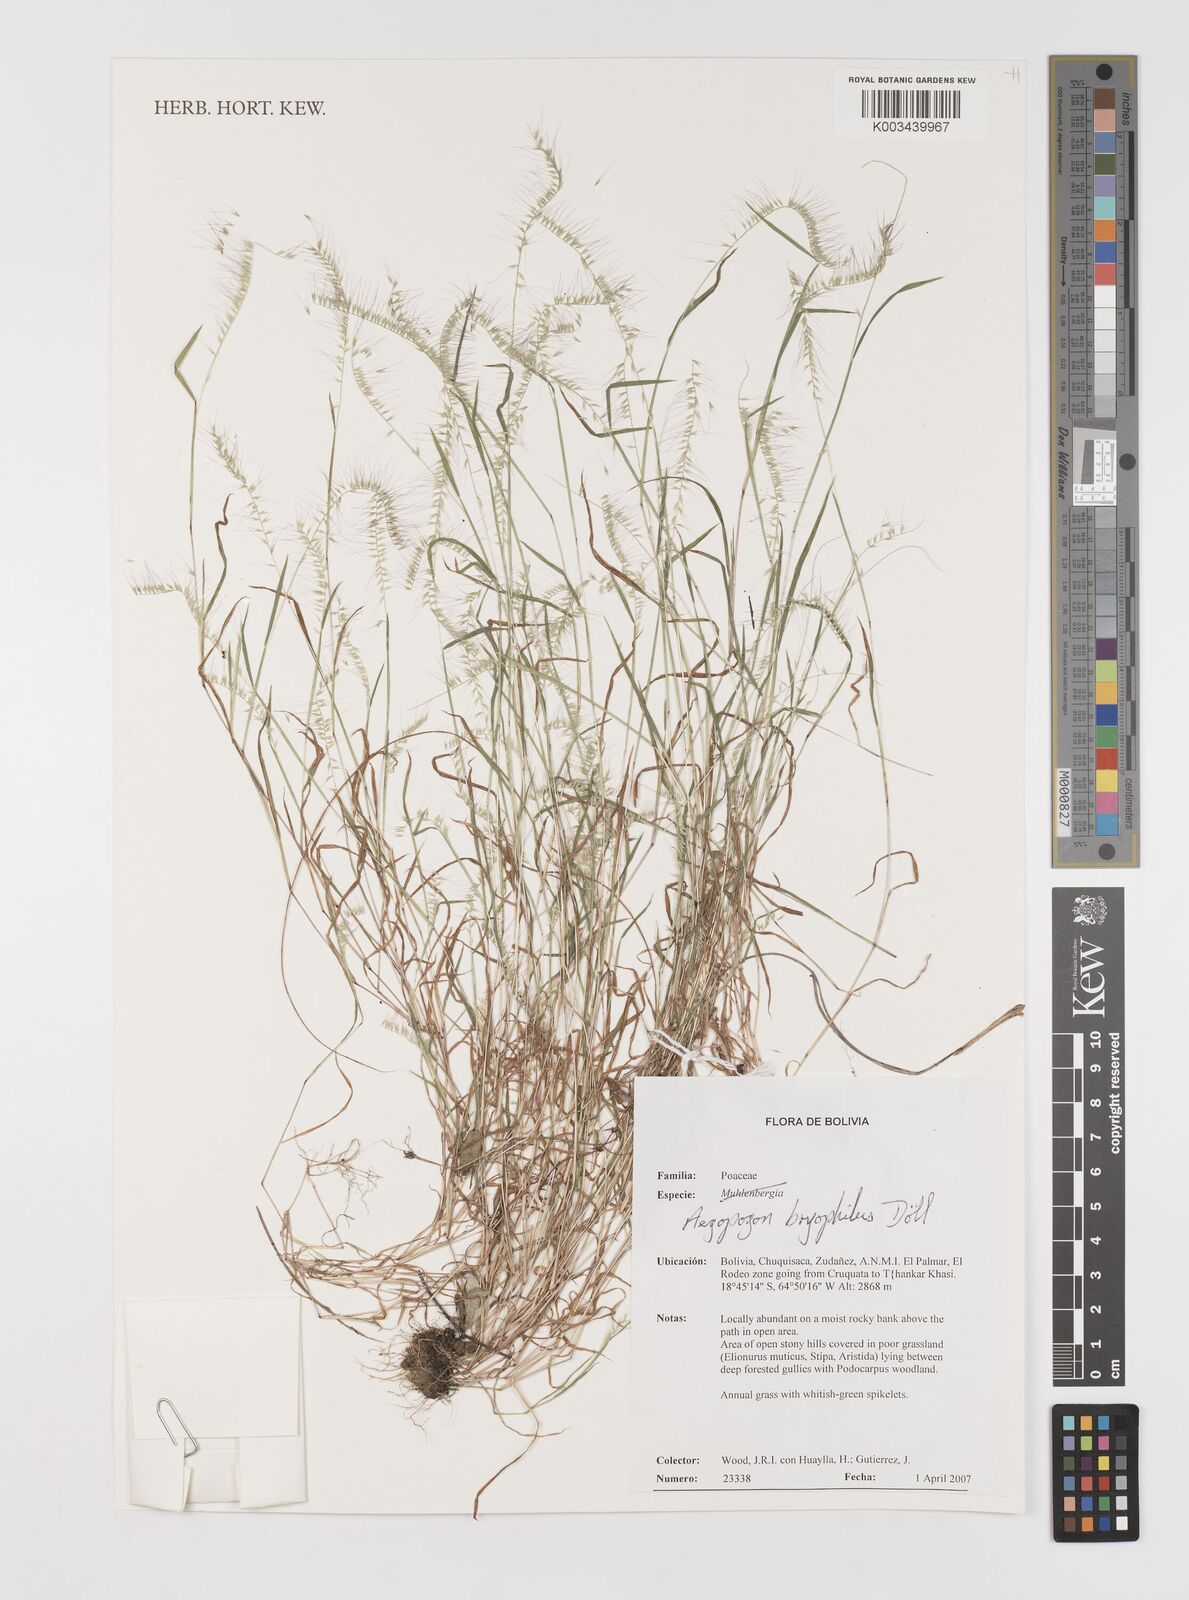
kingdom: Plantae
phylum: Tracheophyta
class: Liliopsida
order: Poales
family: Poaceae
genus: Muhlenbergia
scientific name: Muhlenbergia bryophilus
